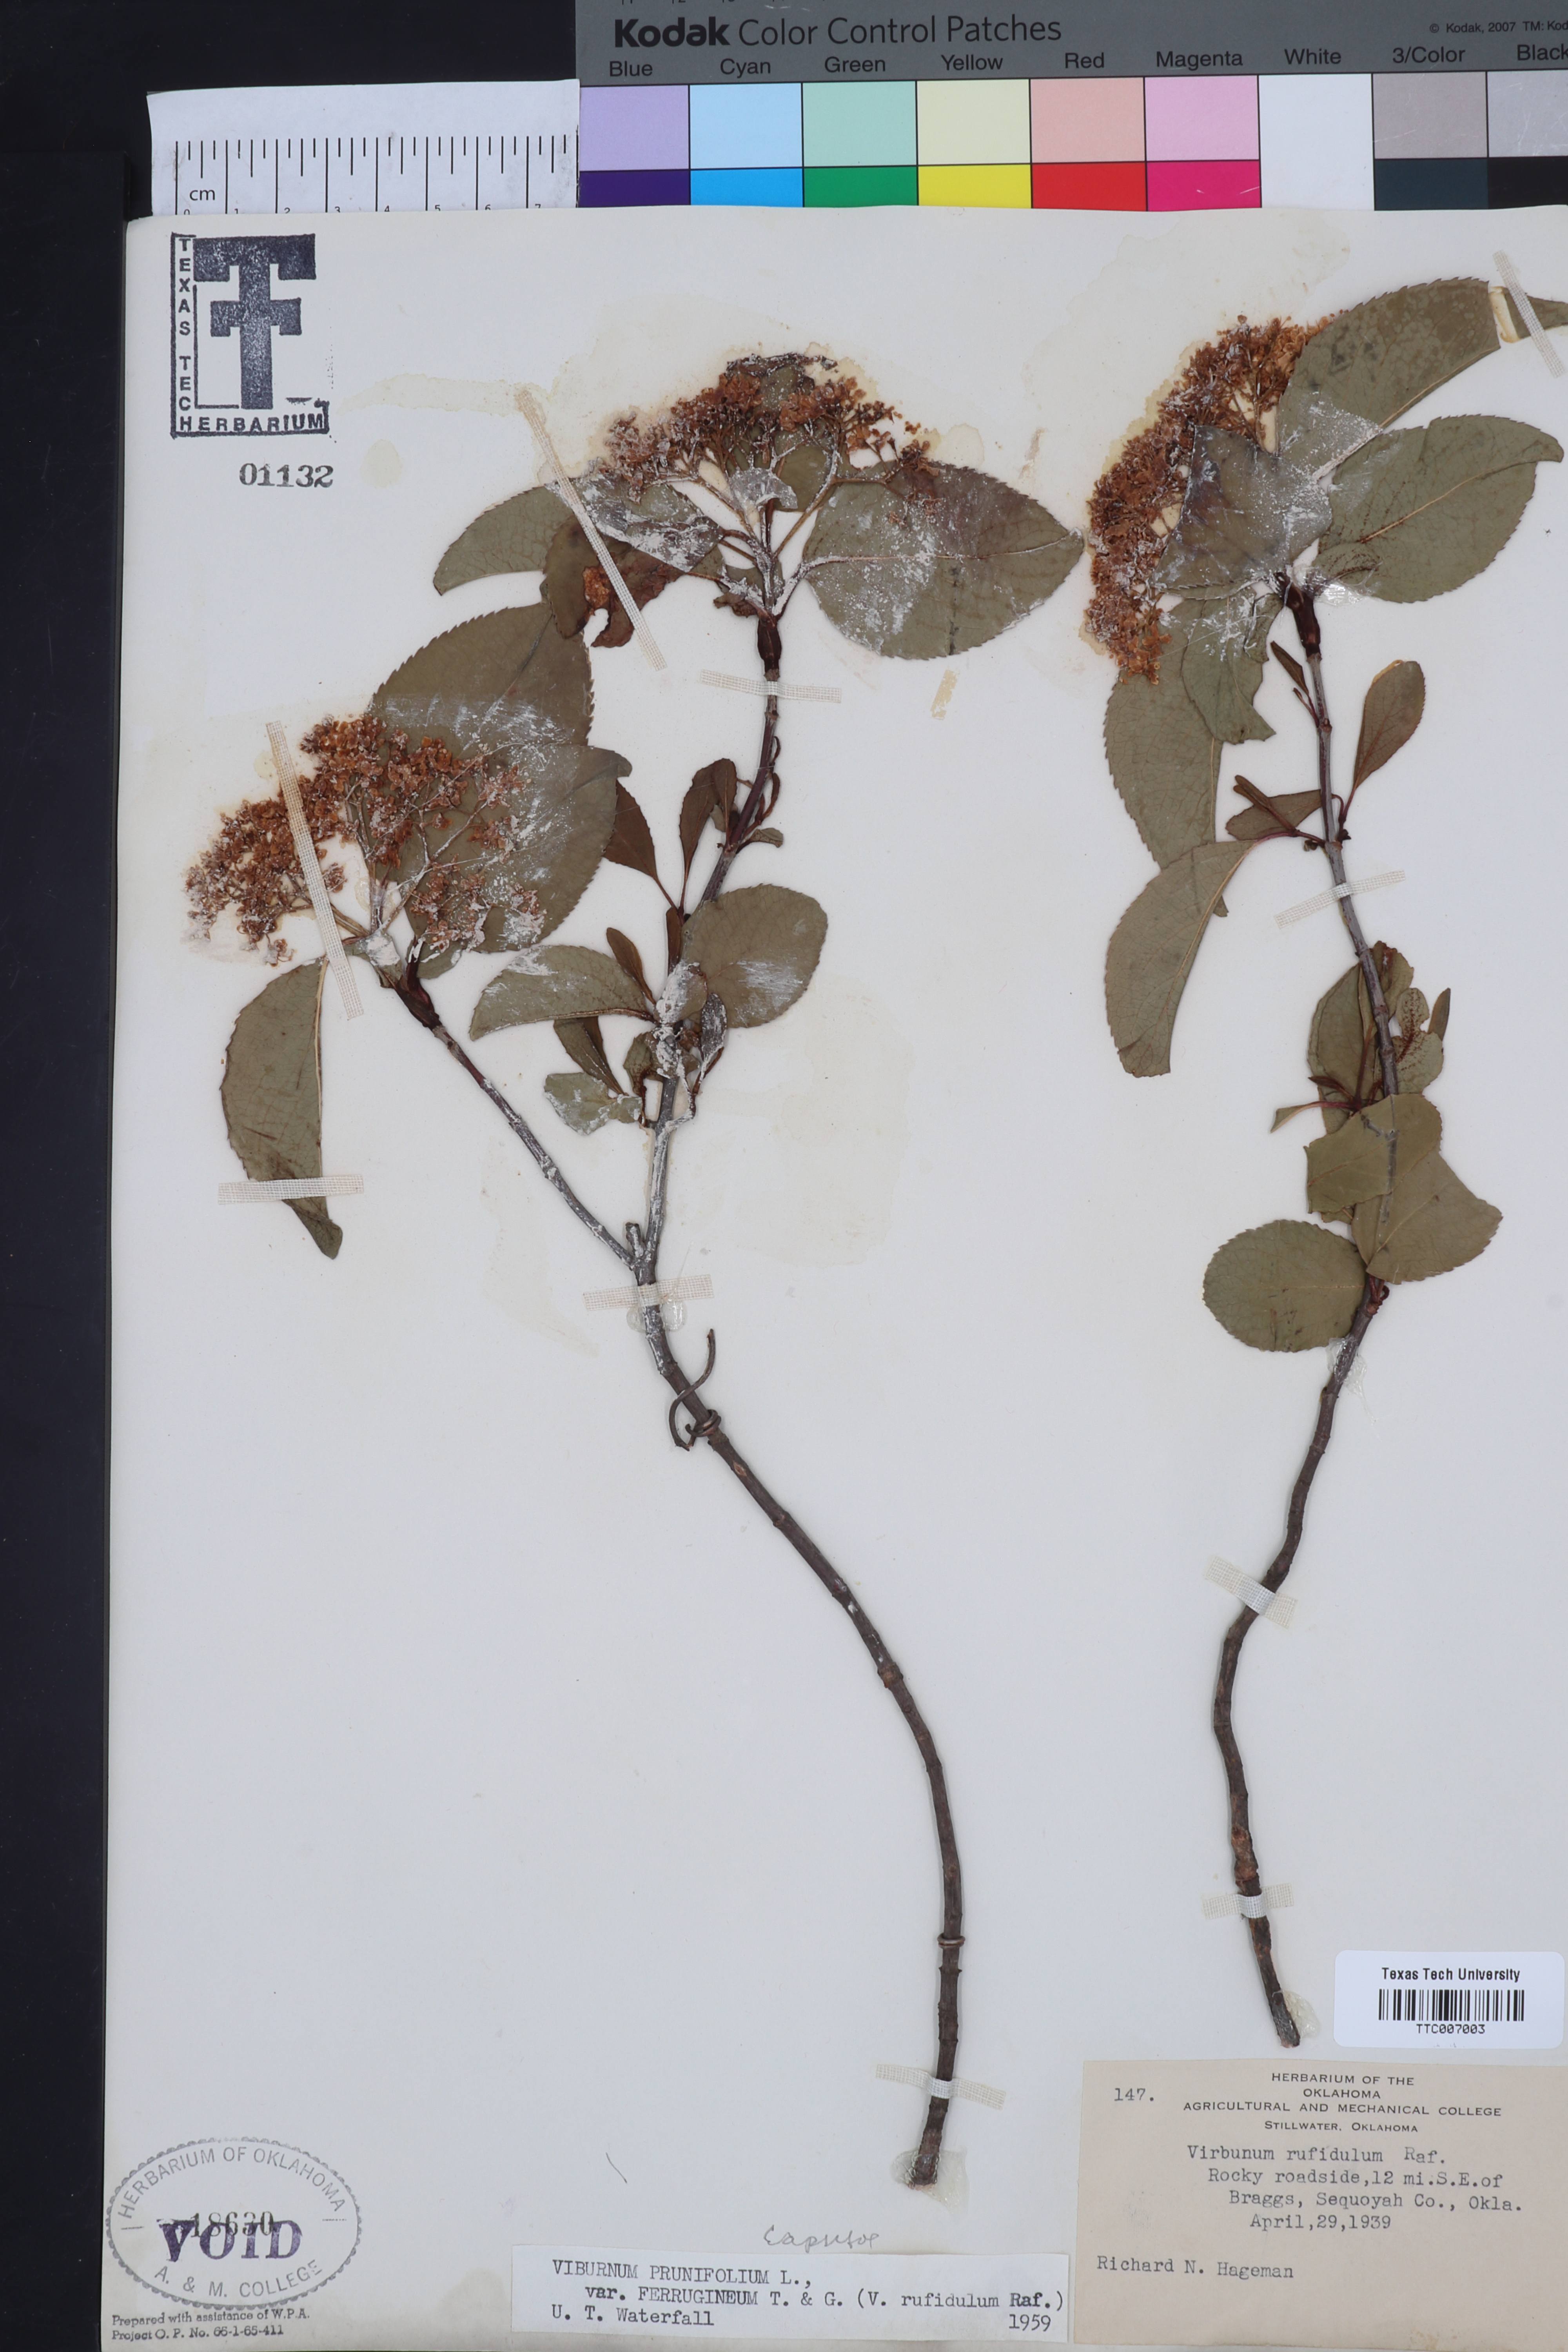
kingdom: Plantae
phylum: Tracheophyta
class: Magnoliopsida
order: Dipsacales
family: Viburnaceae
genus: Viburnum
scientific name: Viburnum rufidulum
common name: Blue haw
